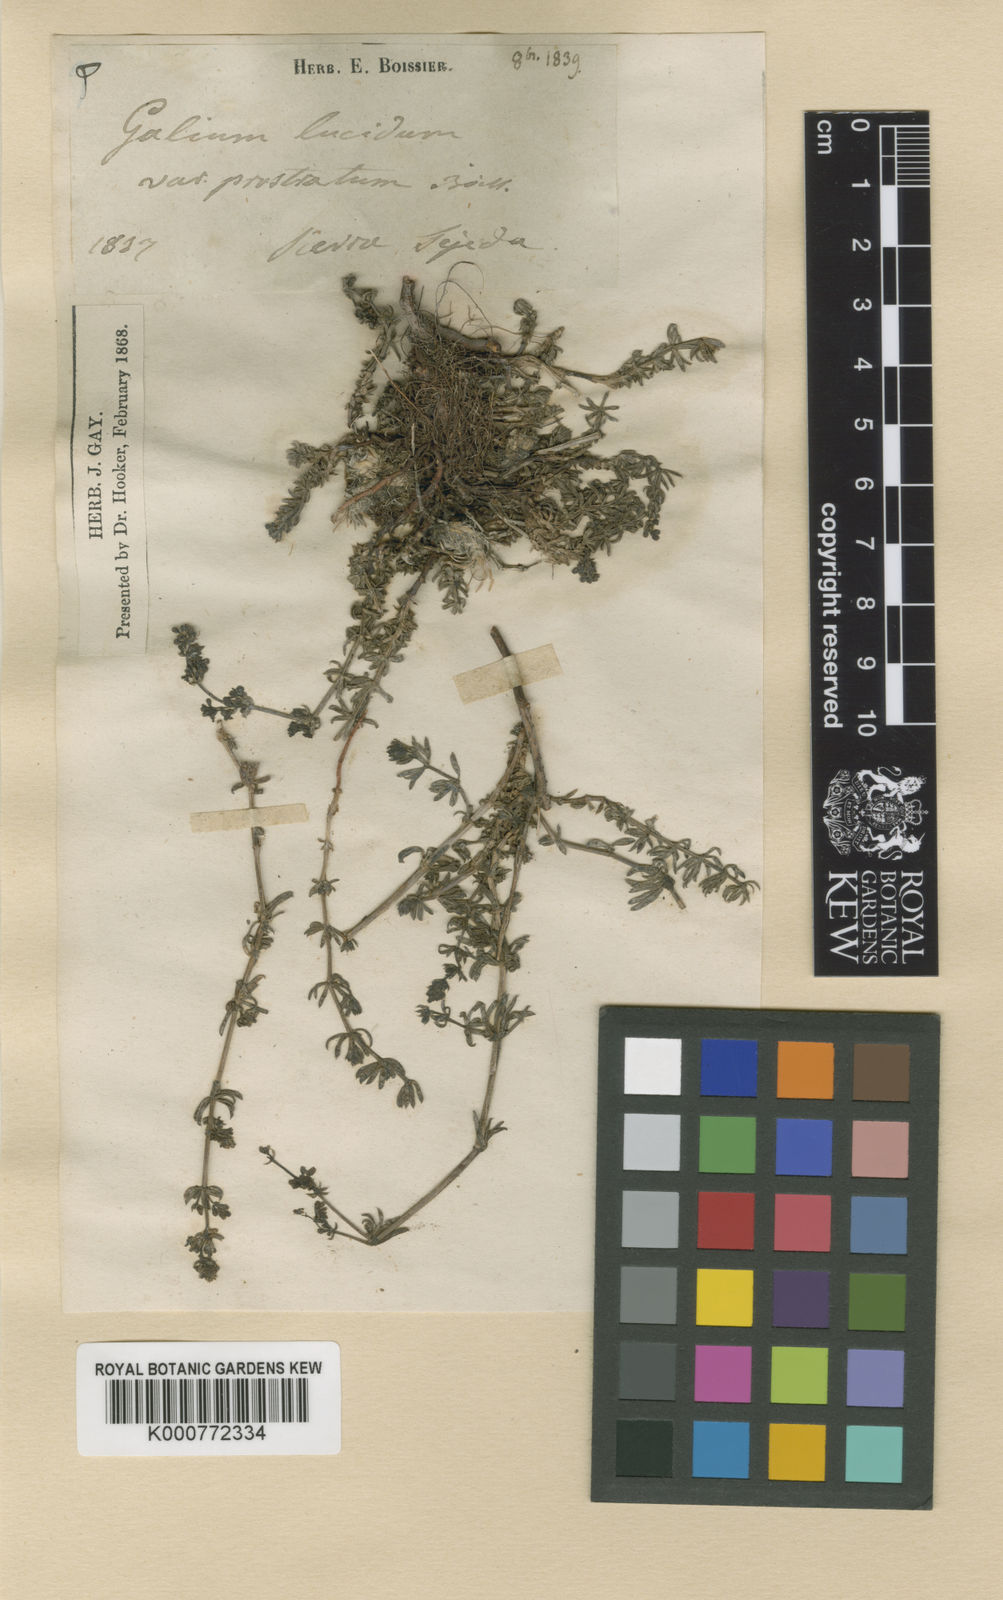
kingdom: Plantae
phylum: Tracheophyta
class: Magnoliopsida
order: Gentianales
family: Rubiaceae
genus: Galium
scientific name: Galium lucidum
